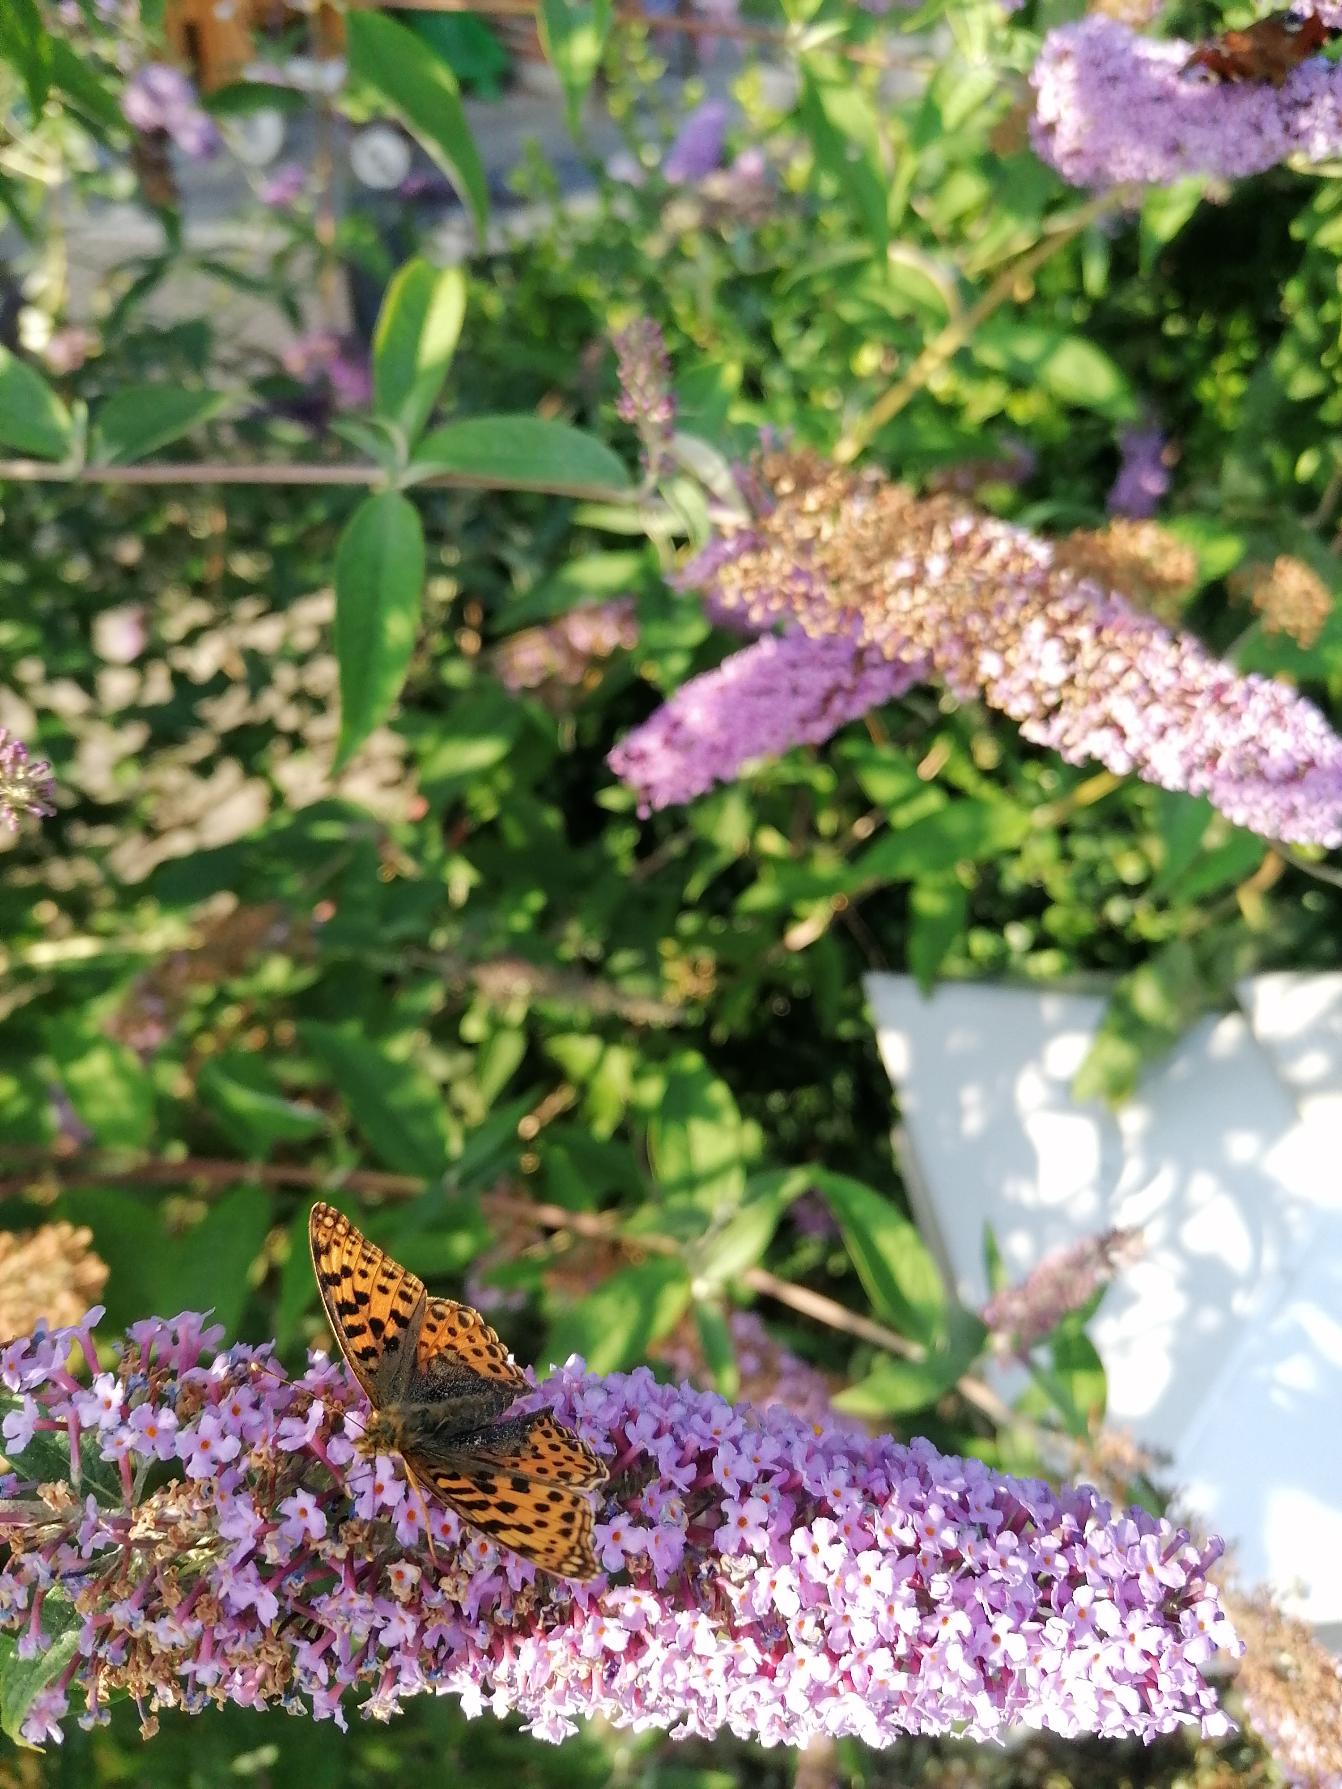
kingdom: Animalia
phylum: Arthropoda
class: Insecta
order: Lepidoptera
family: Nymphalidae
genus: Issoria
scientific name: Issoria lathonia
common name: Storplettet perlemorsommerfugl
